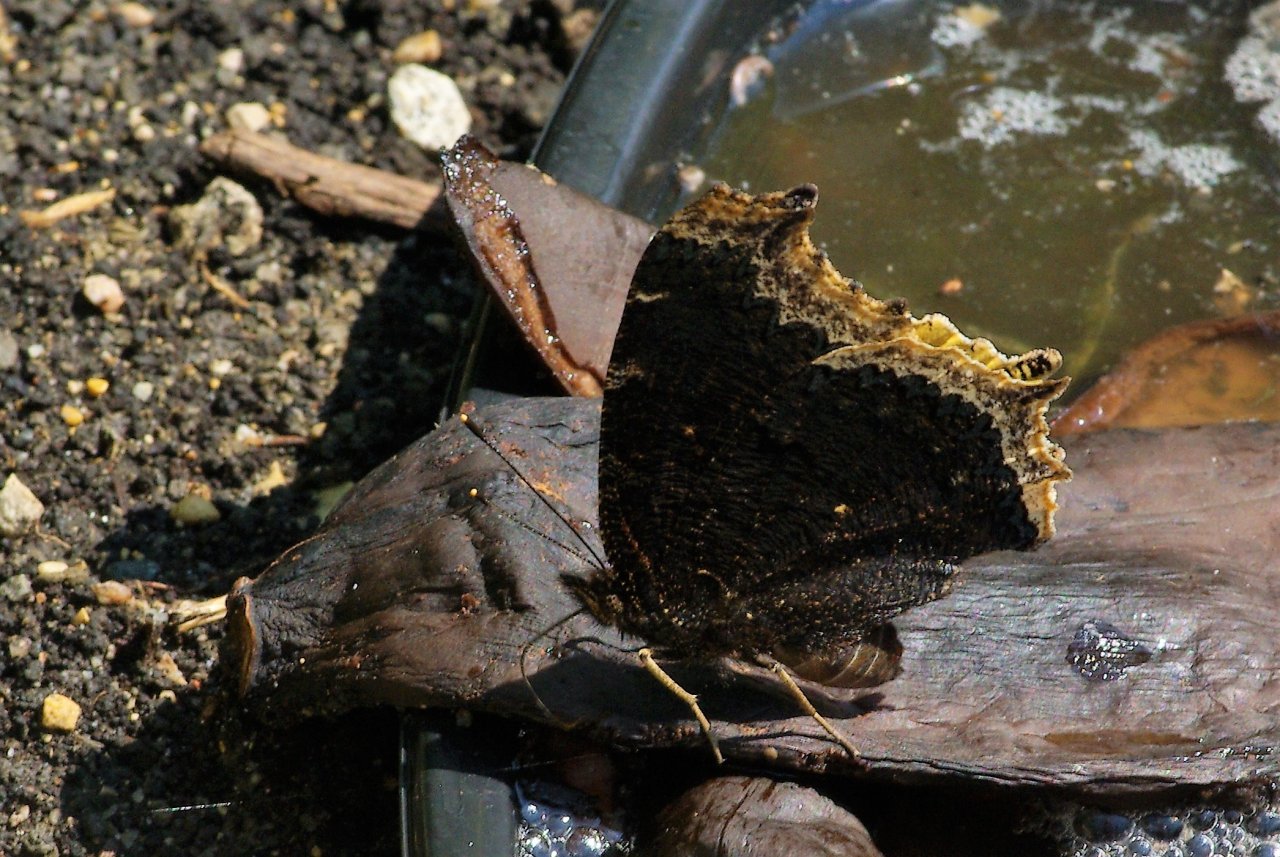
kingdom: Animalia
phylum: Arthropoda
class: Insecta
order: Lepidoptera
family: Nymphalidae
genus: Nymphalis
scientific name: Nymphalis antiopa
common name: Mourning Cloak
